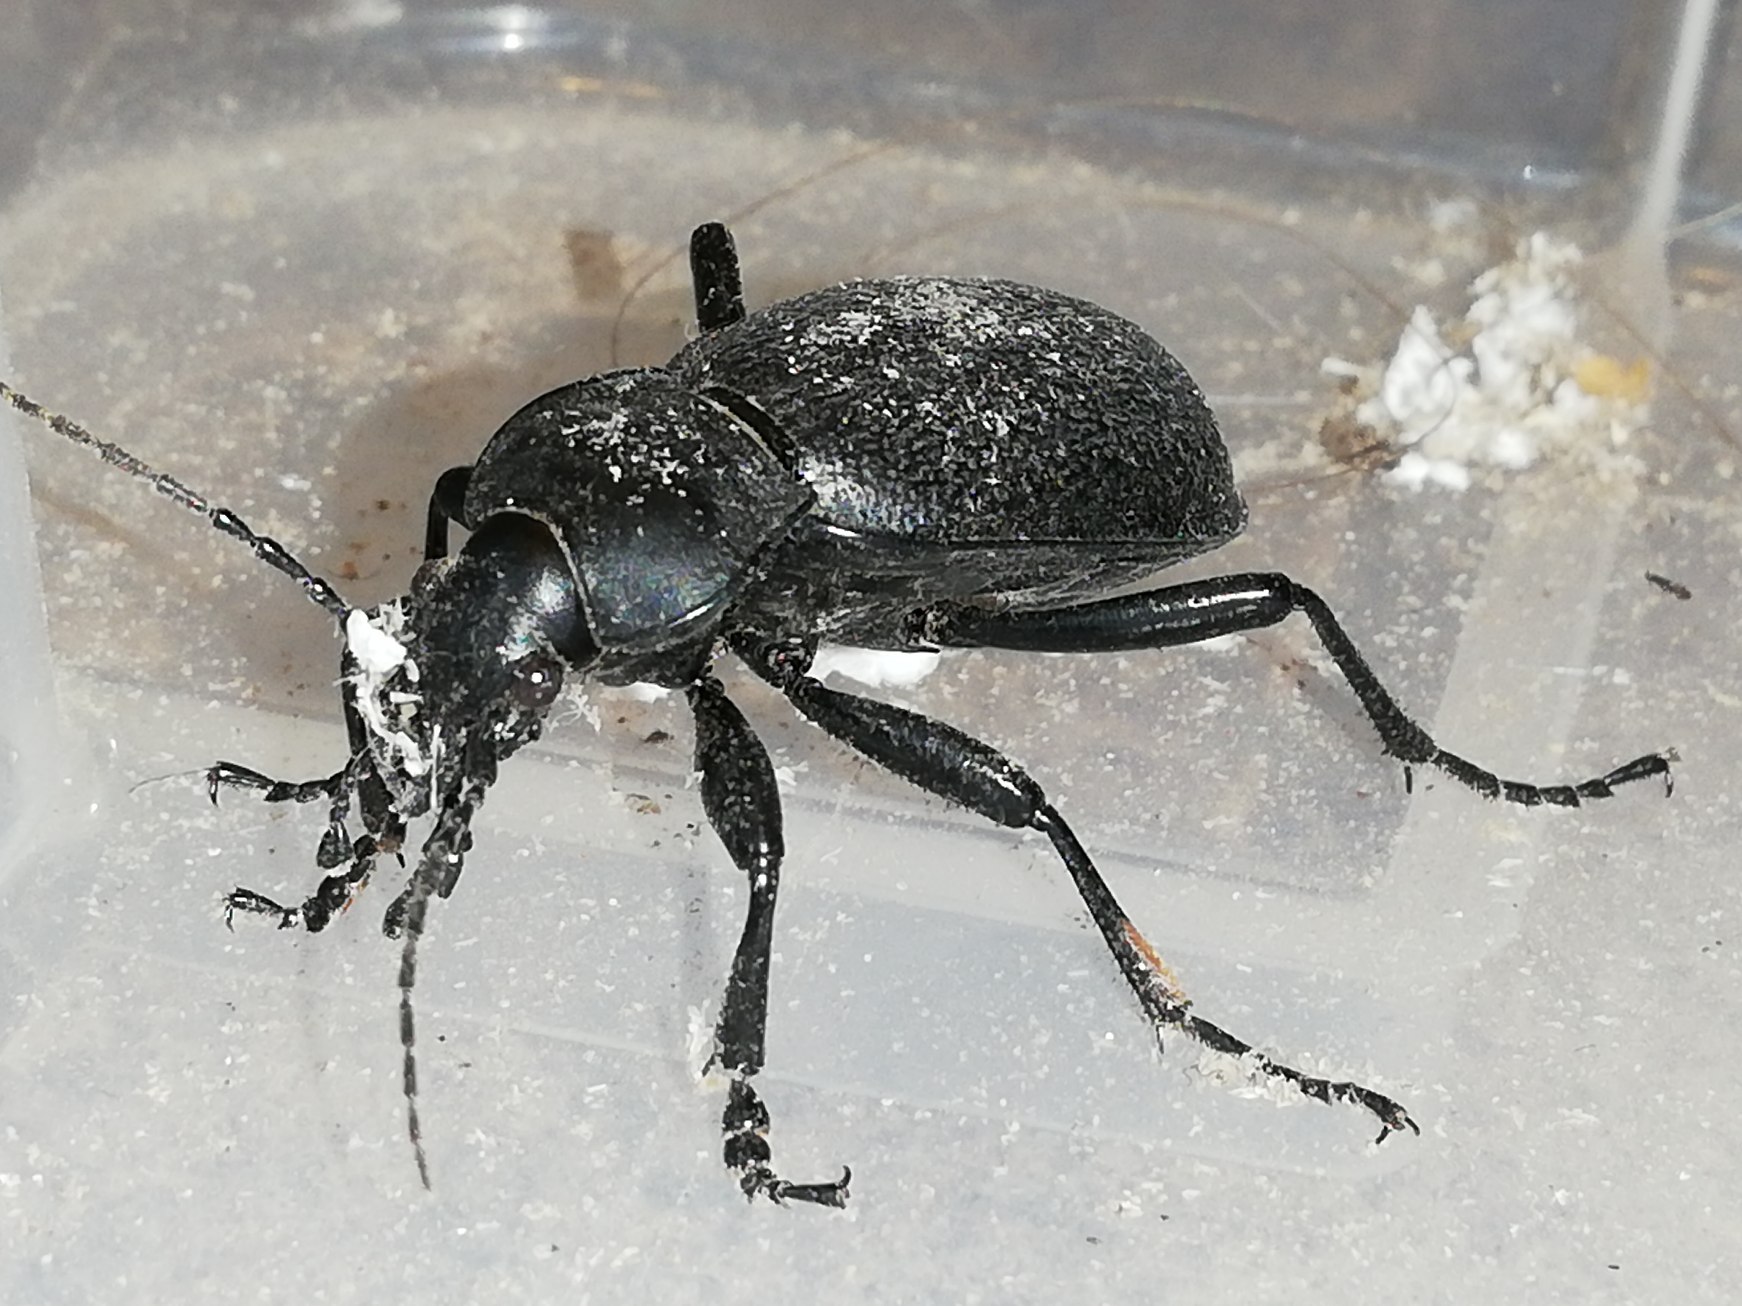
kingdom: Animalia
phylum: Arthropoda
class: Insecta
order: Coleoptera
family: Carabidae
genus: Carabus
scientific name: Carabus coriaceus
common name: Læderløber
